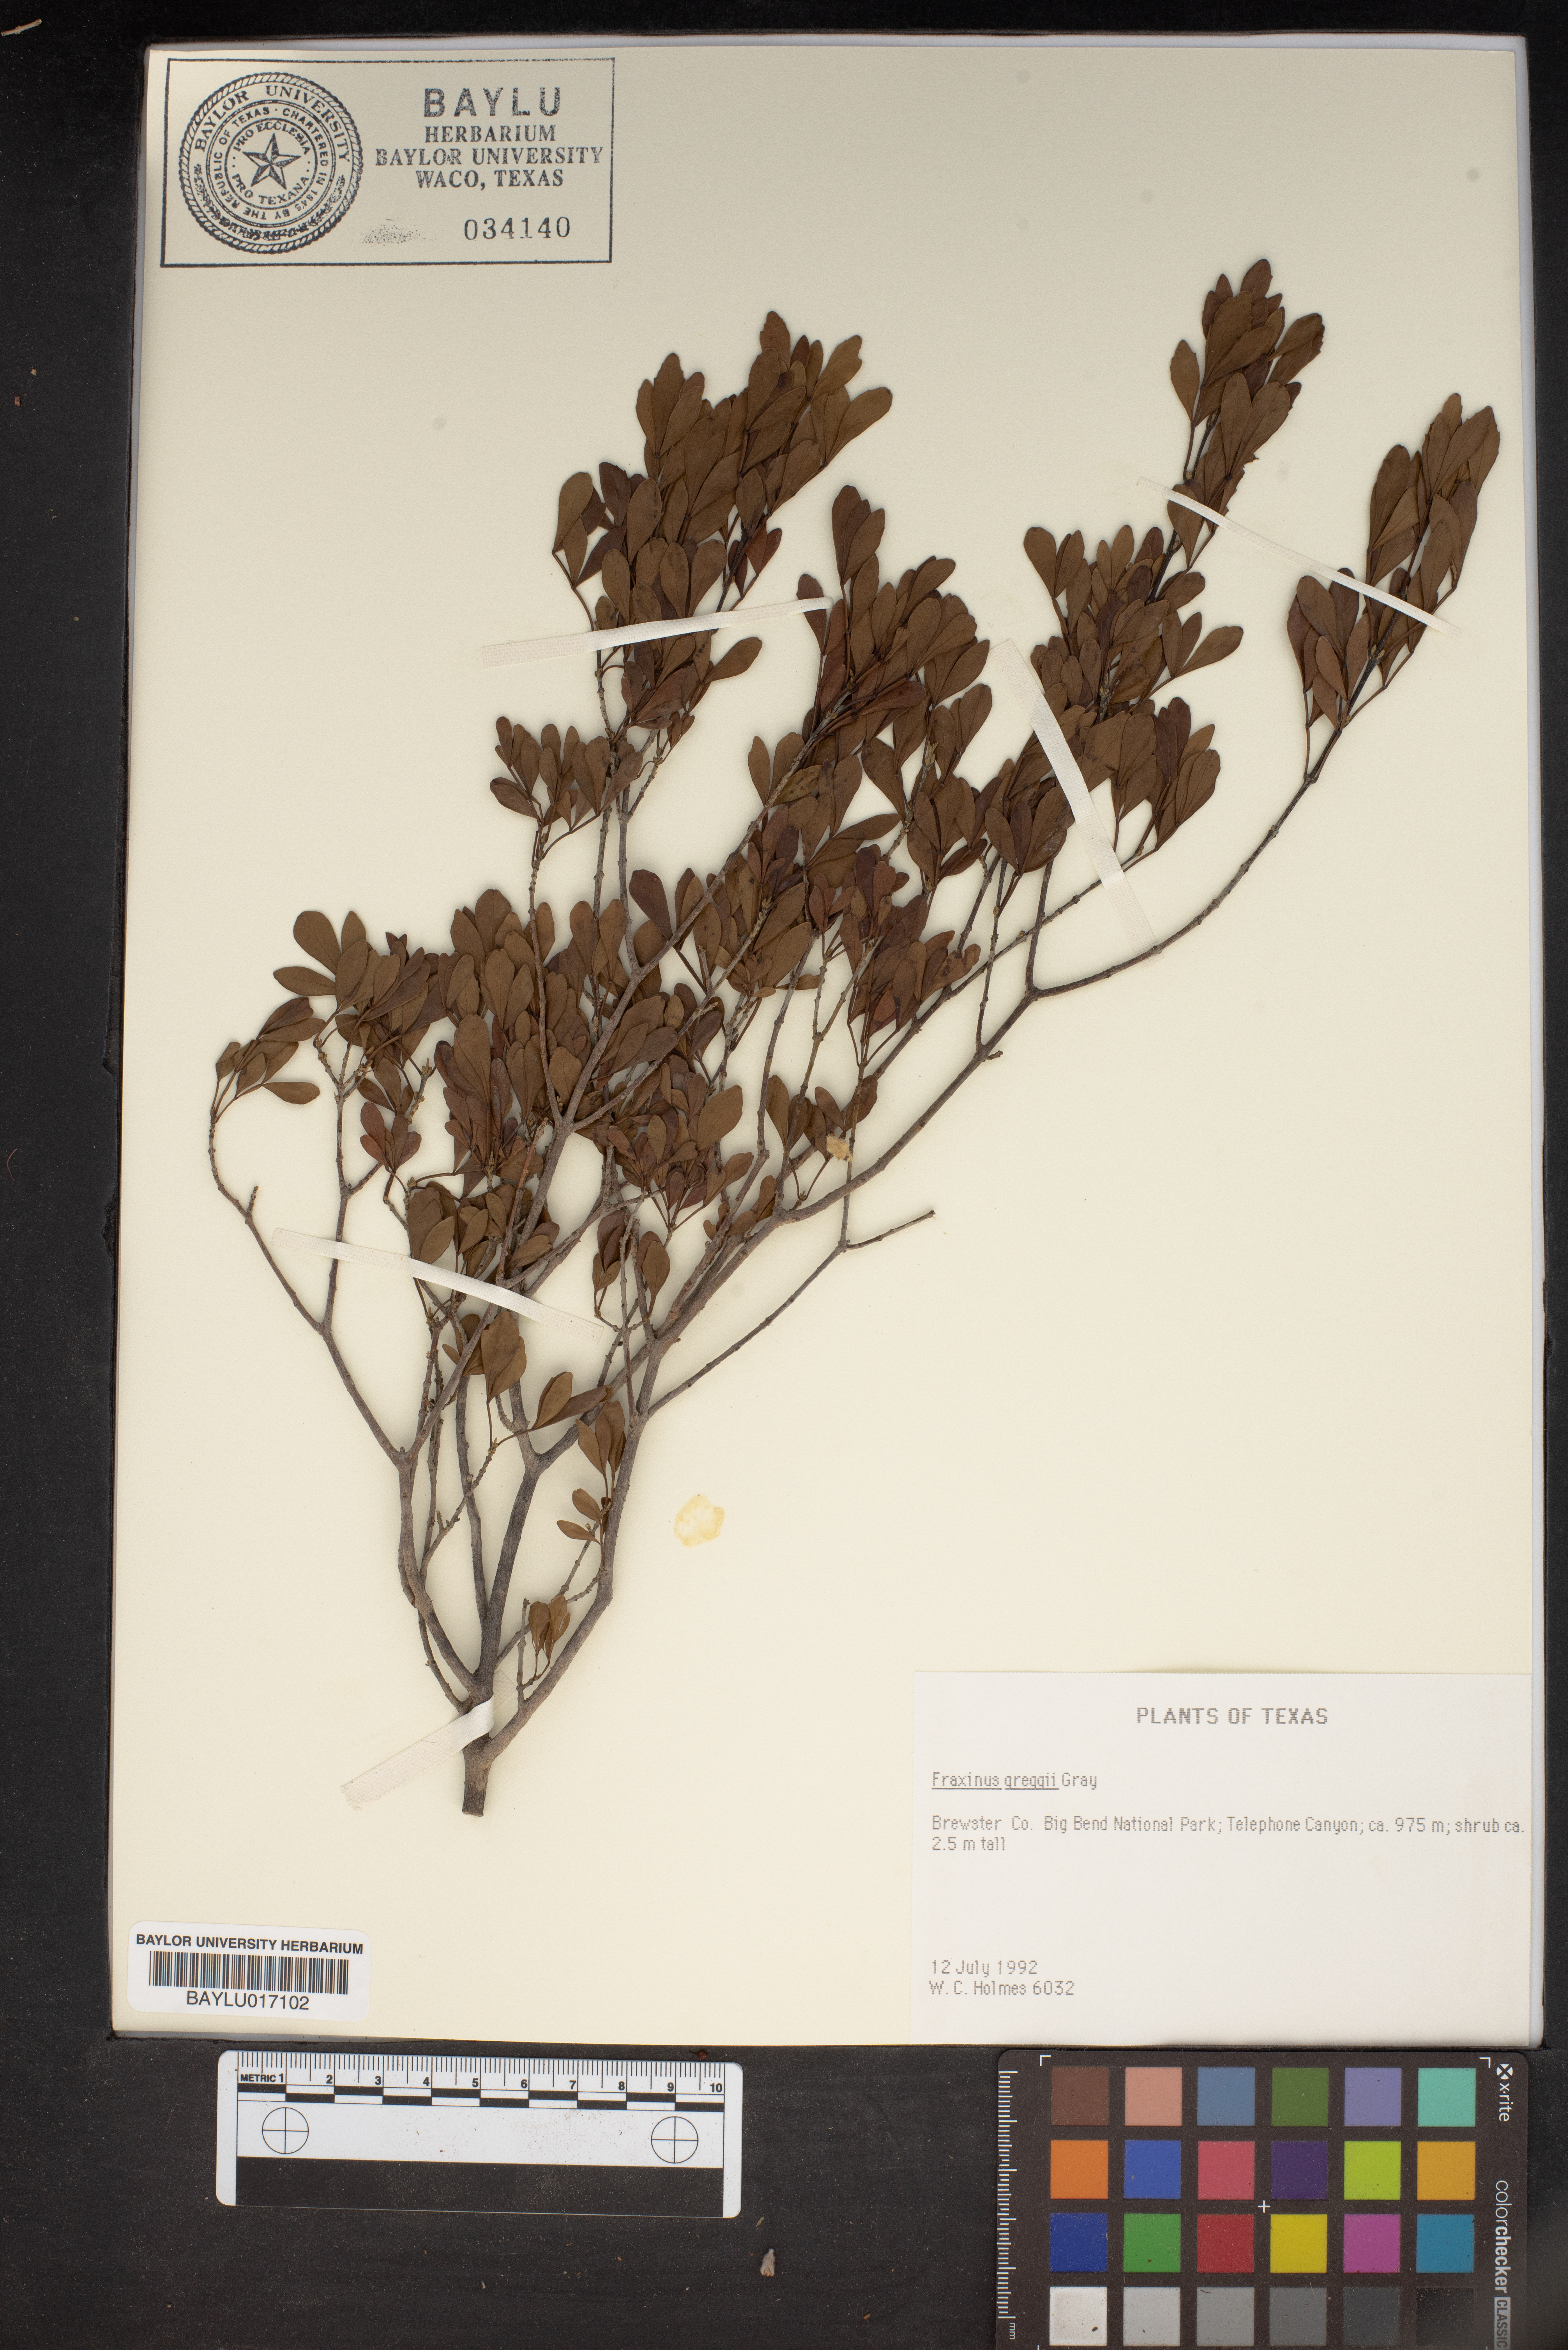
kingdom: Plantae
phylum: Tracheophyta
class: Magnoliopsida
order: Lamiales
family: Oleaceae
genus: Fraxinus
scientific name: Fraxinus greggii
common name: Gregg ash
